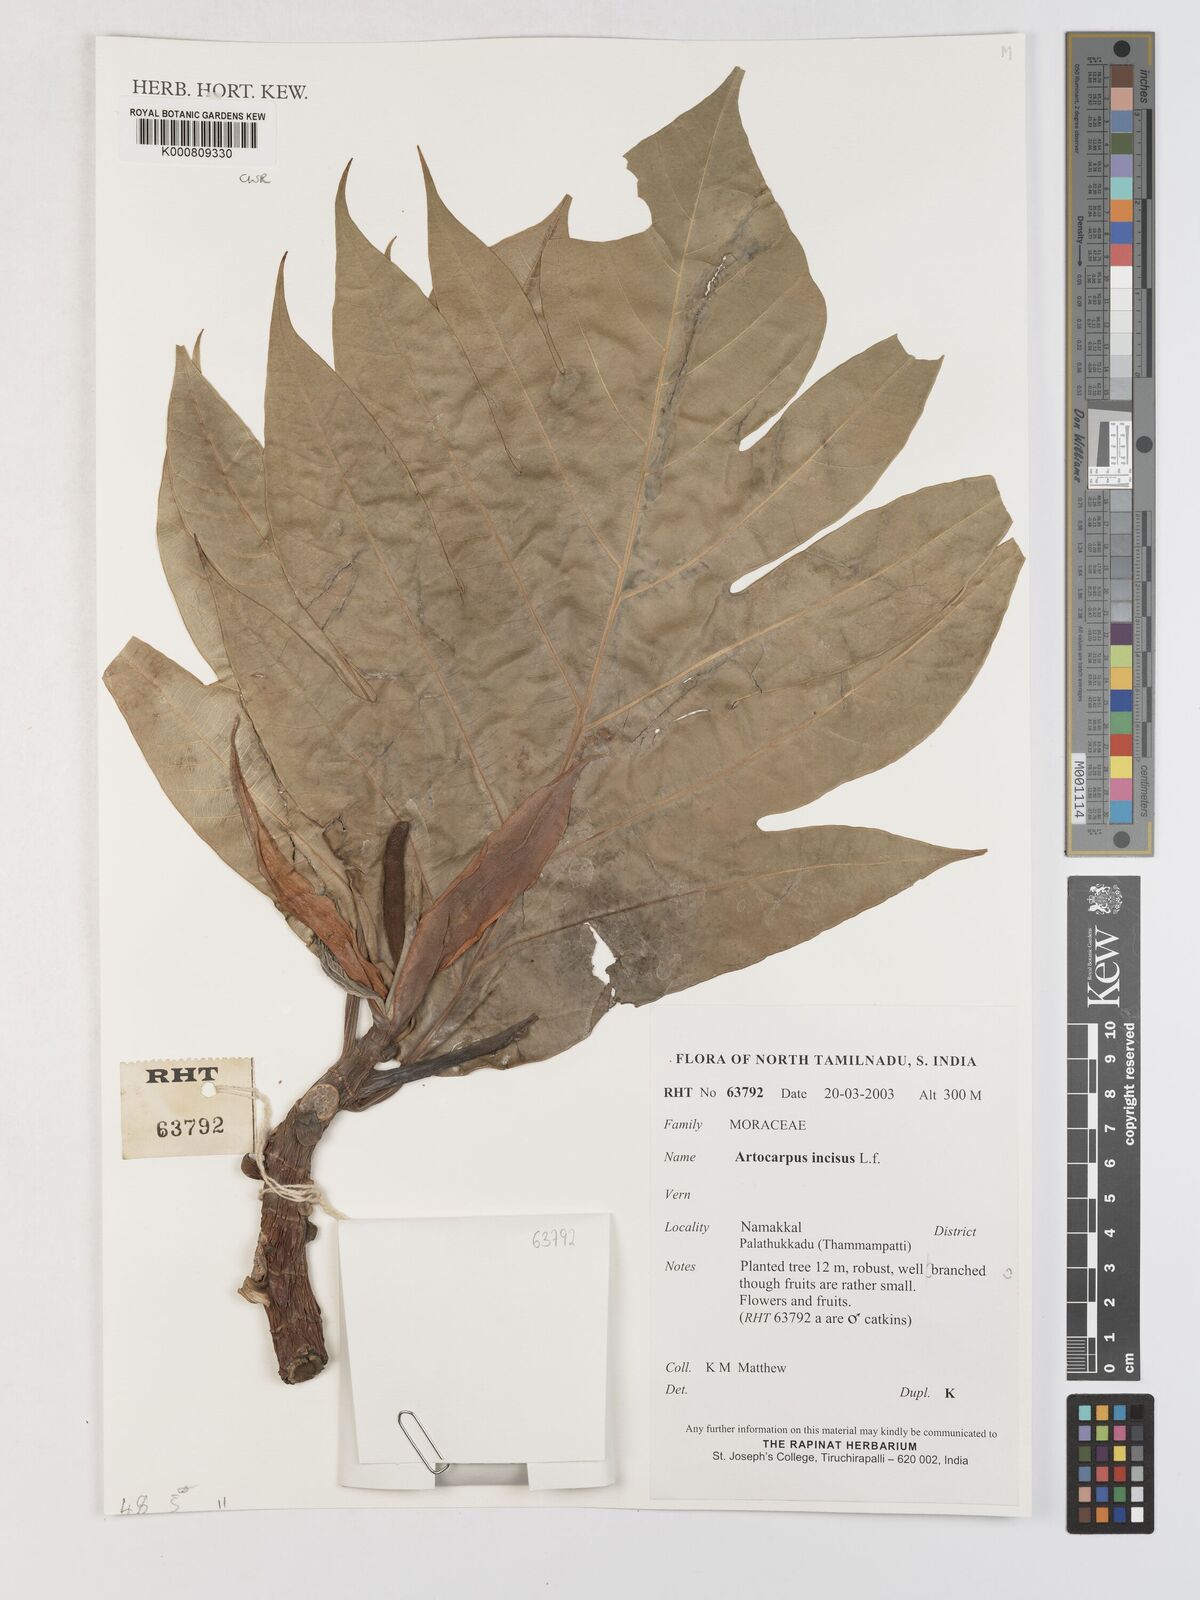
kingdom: Plantae
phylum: Tracheophyta
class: Magnoliopsida
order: Rosales
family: Moraceae
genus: Artocarpus
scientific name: Artocarpus altilis
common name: Breadfruit
